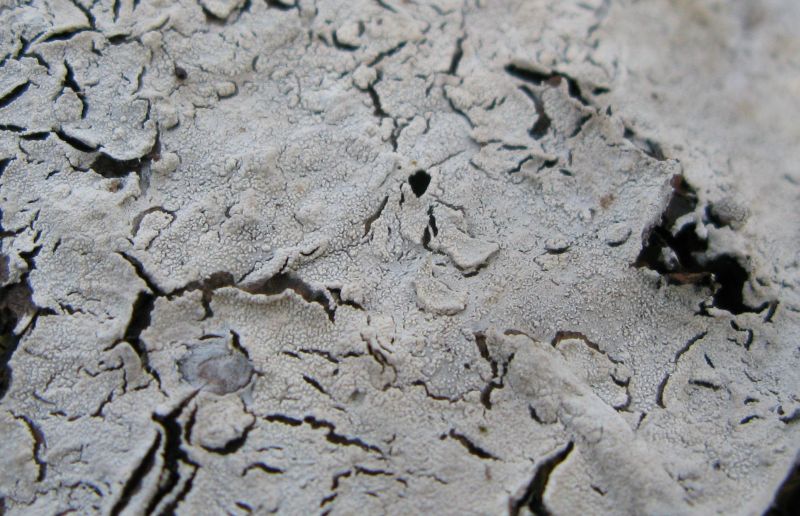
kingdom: Fungi
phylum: Basidiomycota
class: Agaricomycetes
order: Cantharellales
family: Hydnaceae
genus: Sistotrema
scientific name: Sistotrema brinkmannii
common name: bønnesporet kroneskorpe
